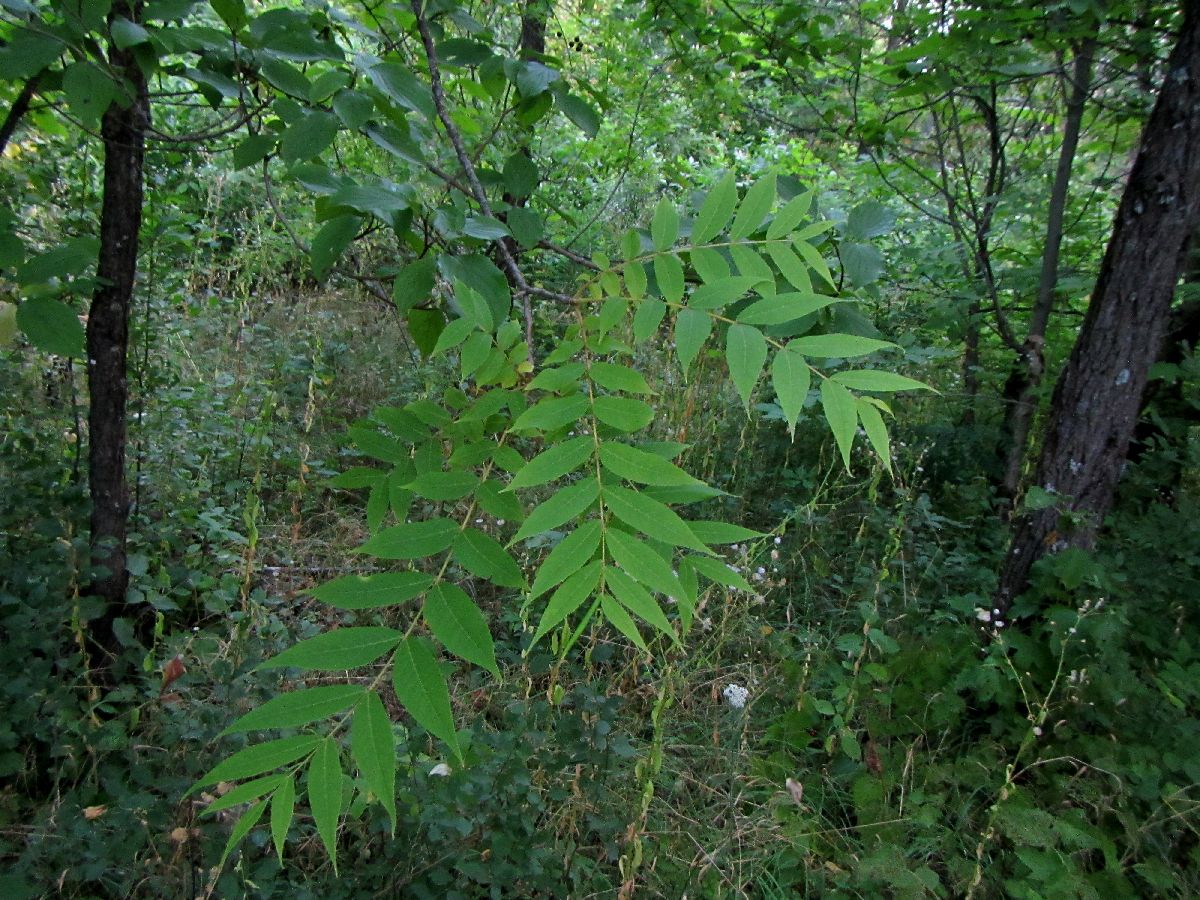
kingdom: Plantae
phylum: Tracheophyta
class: Magnoliopsida
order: Fagales
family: Juglandaceae
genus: Juglans
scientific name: Juglans mandshurica
